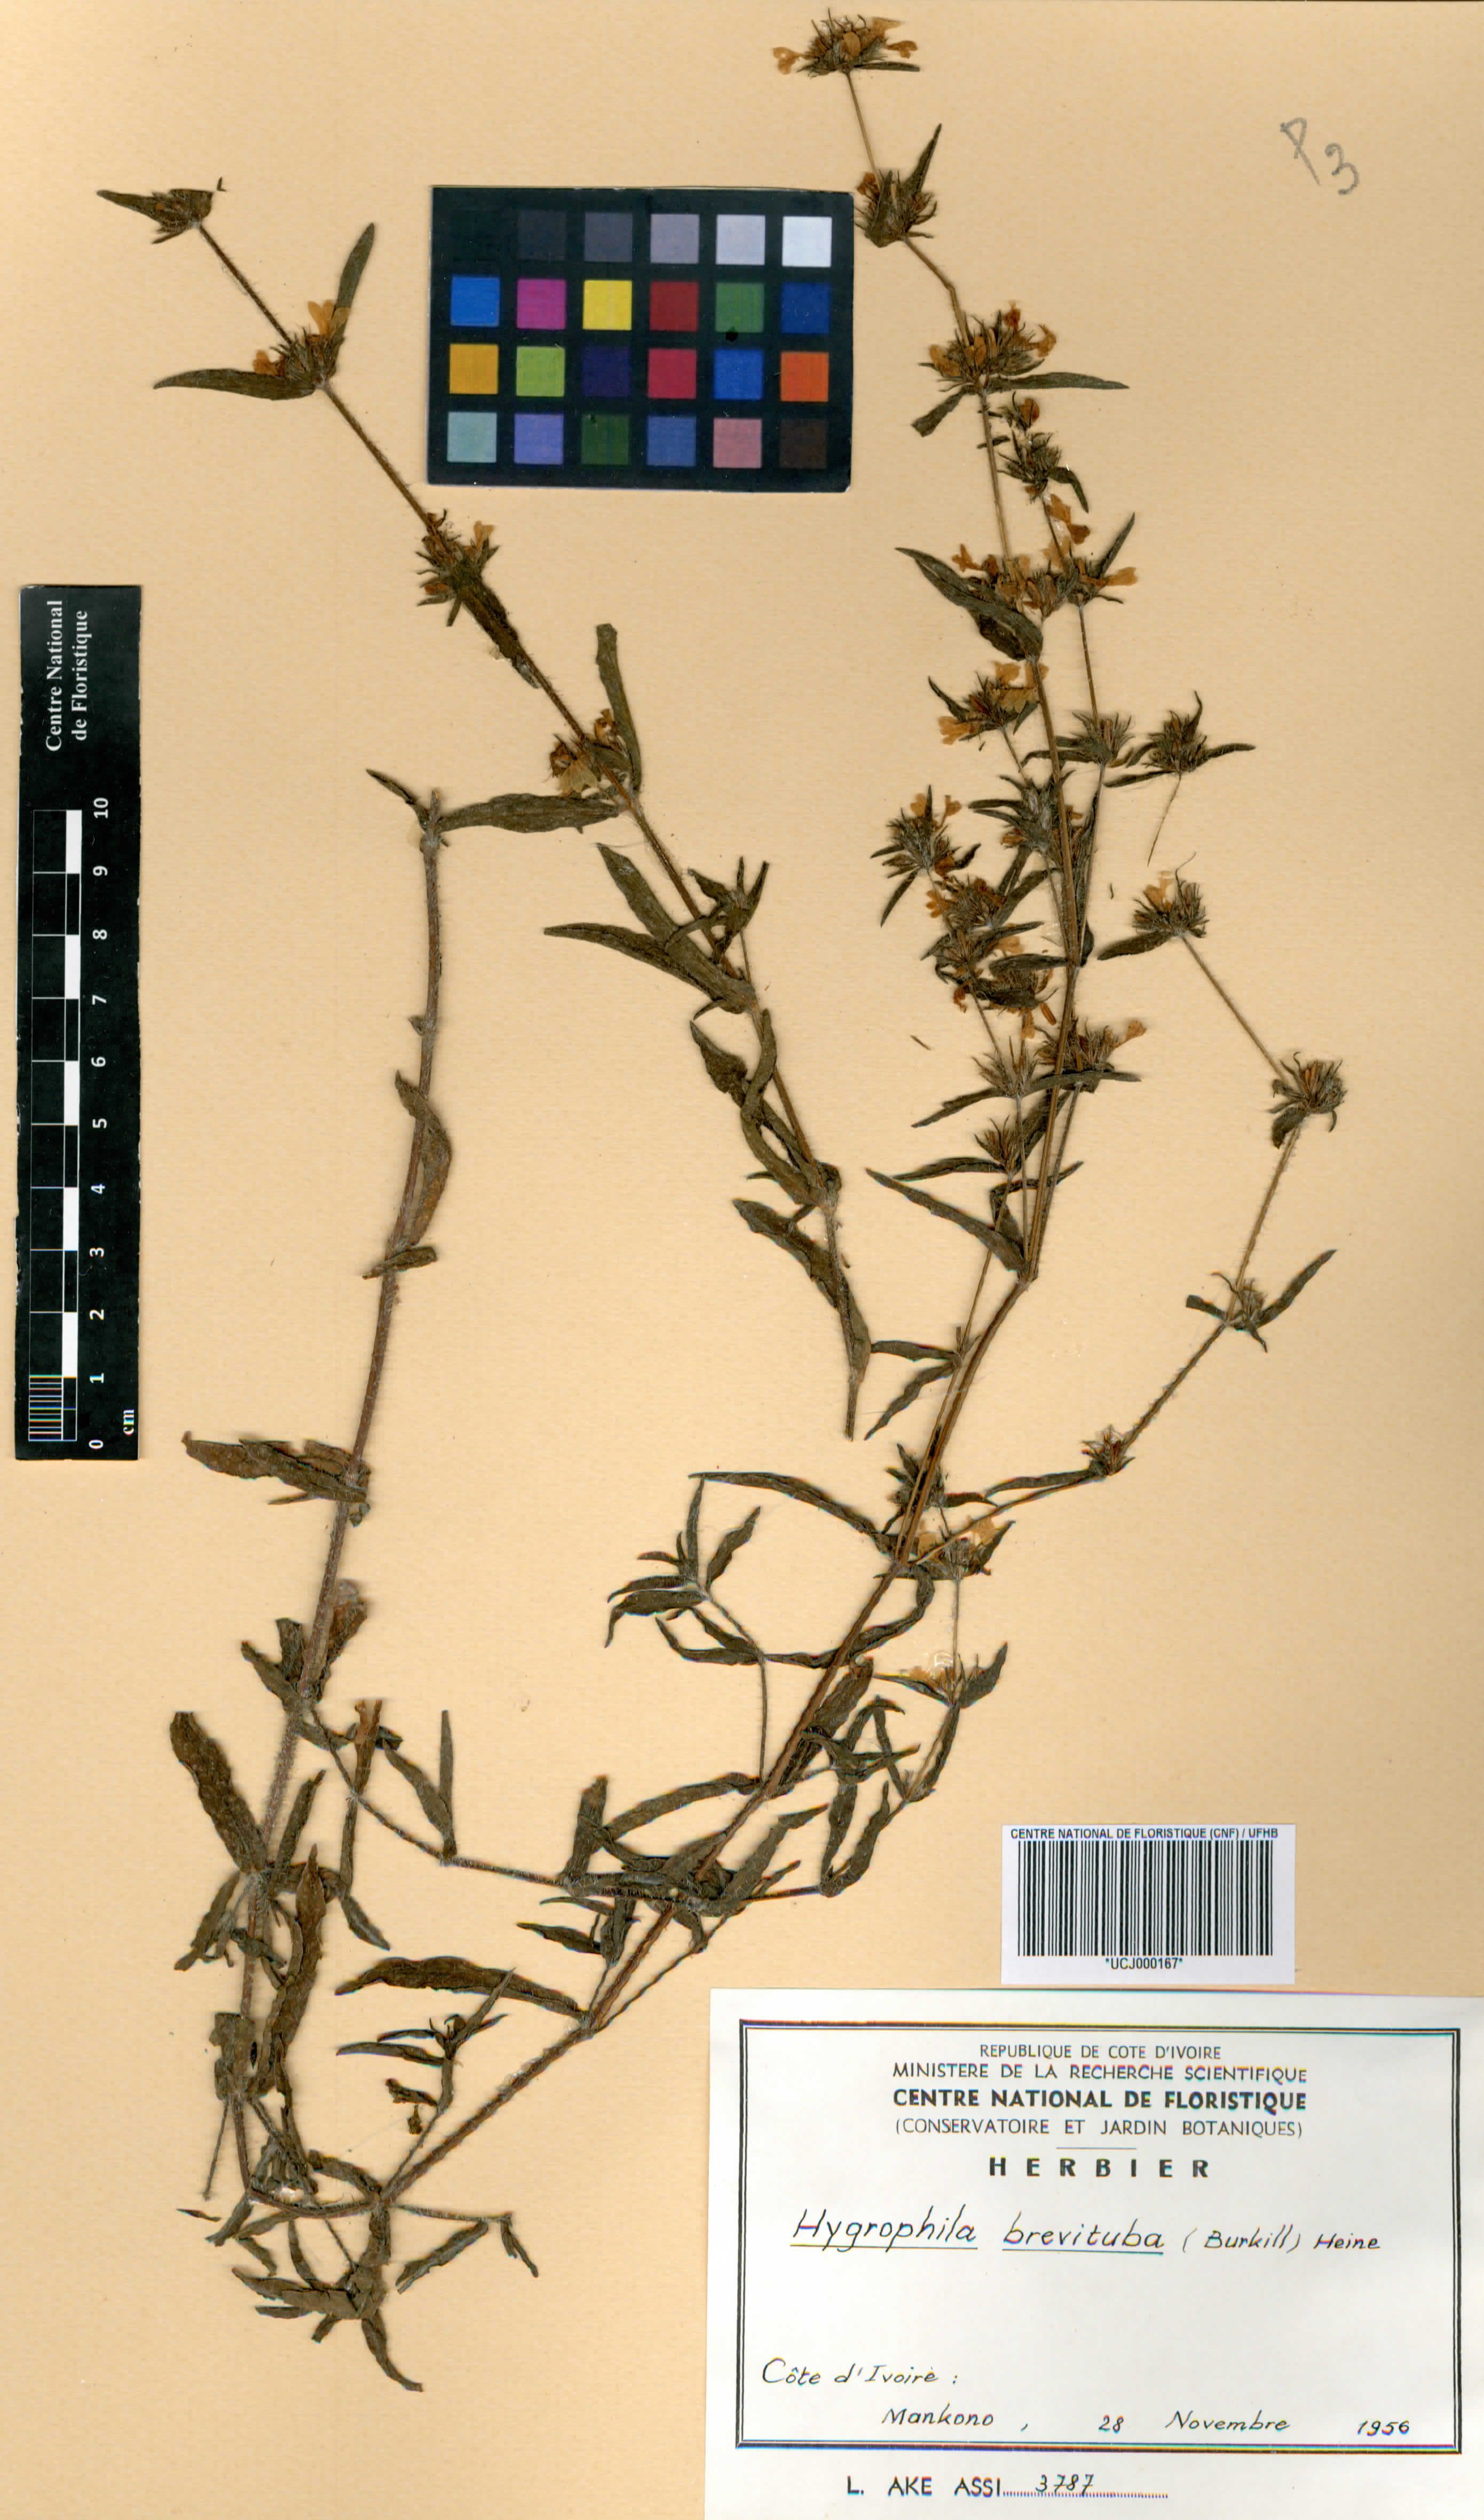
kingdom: Plantae
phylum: Tracheophyta
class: Magnoliopsida
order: Lamiales
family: Acanthaceae
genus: Hygrophila
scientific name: Hygrophila brevituba
